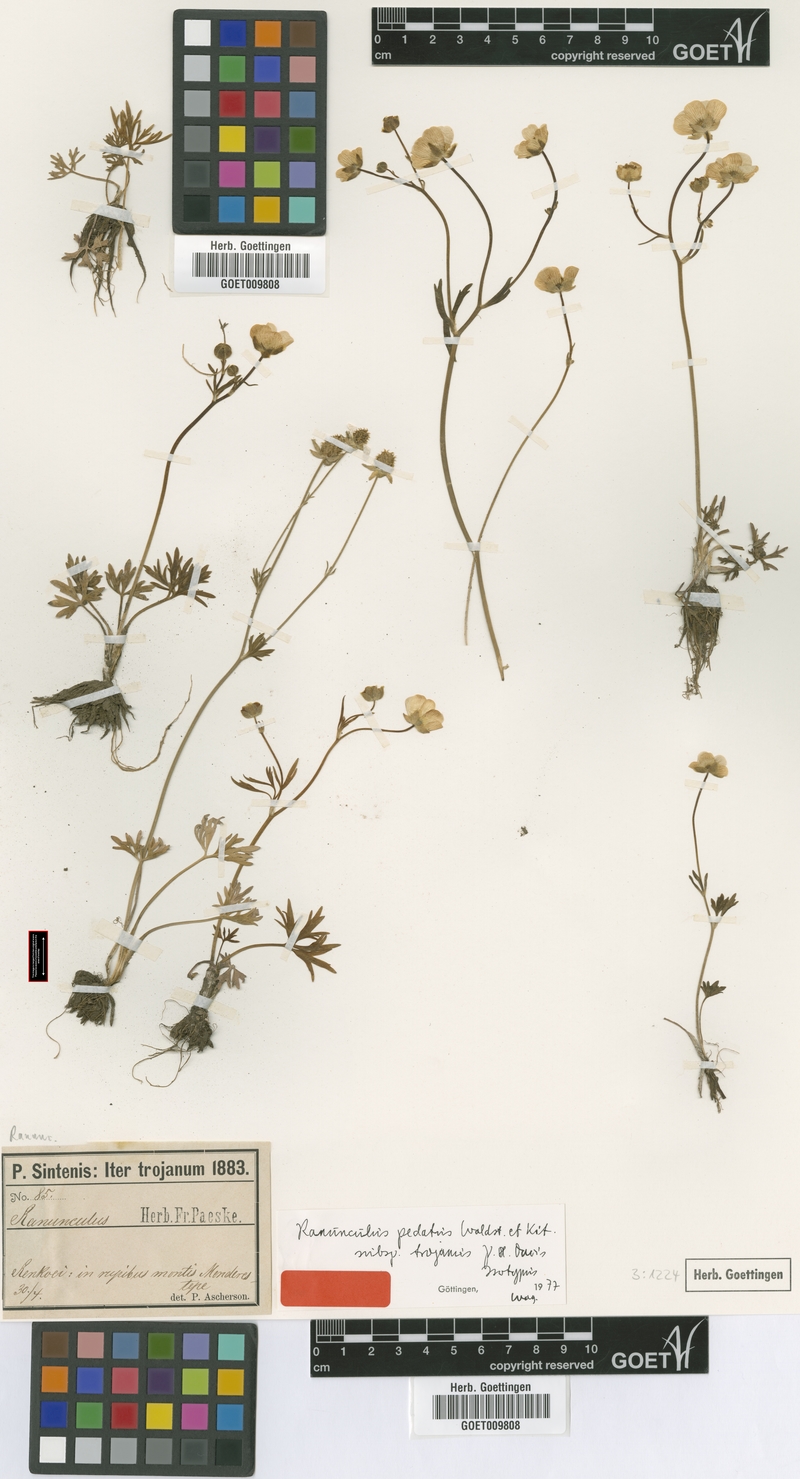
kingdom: Plantae
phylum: Tracheophyta
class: Magnoliopsida
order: Ranunculales
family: Ranunculaceae
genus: Ranunculus
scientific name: Ranunculus pedatus
